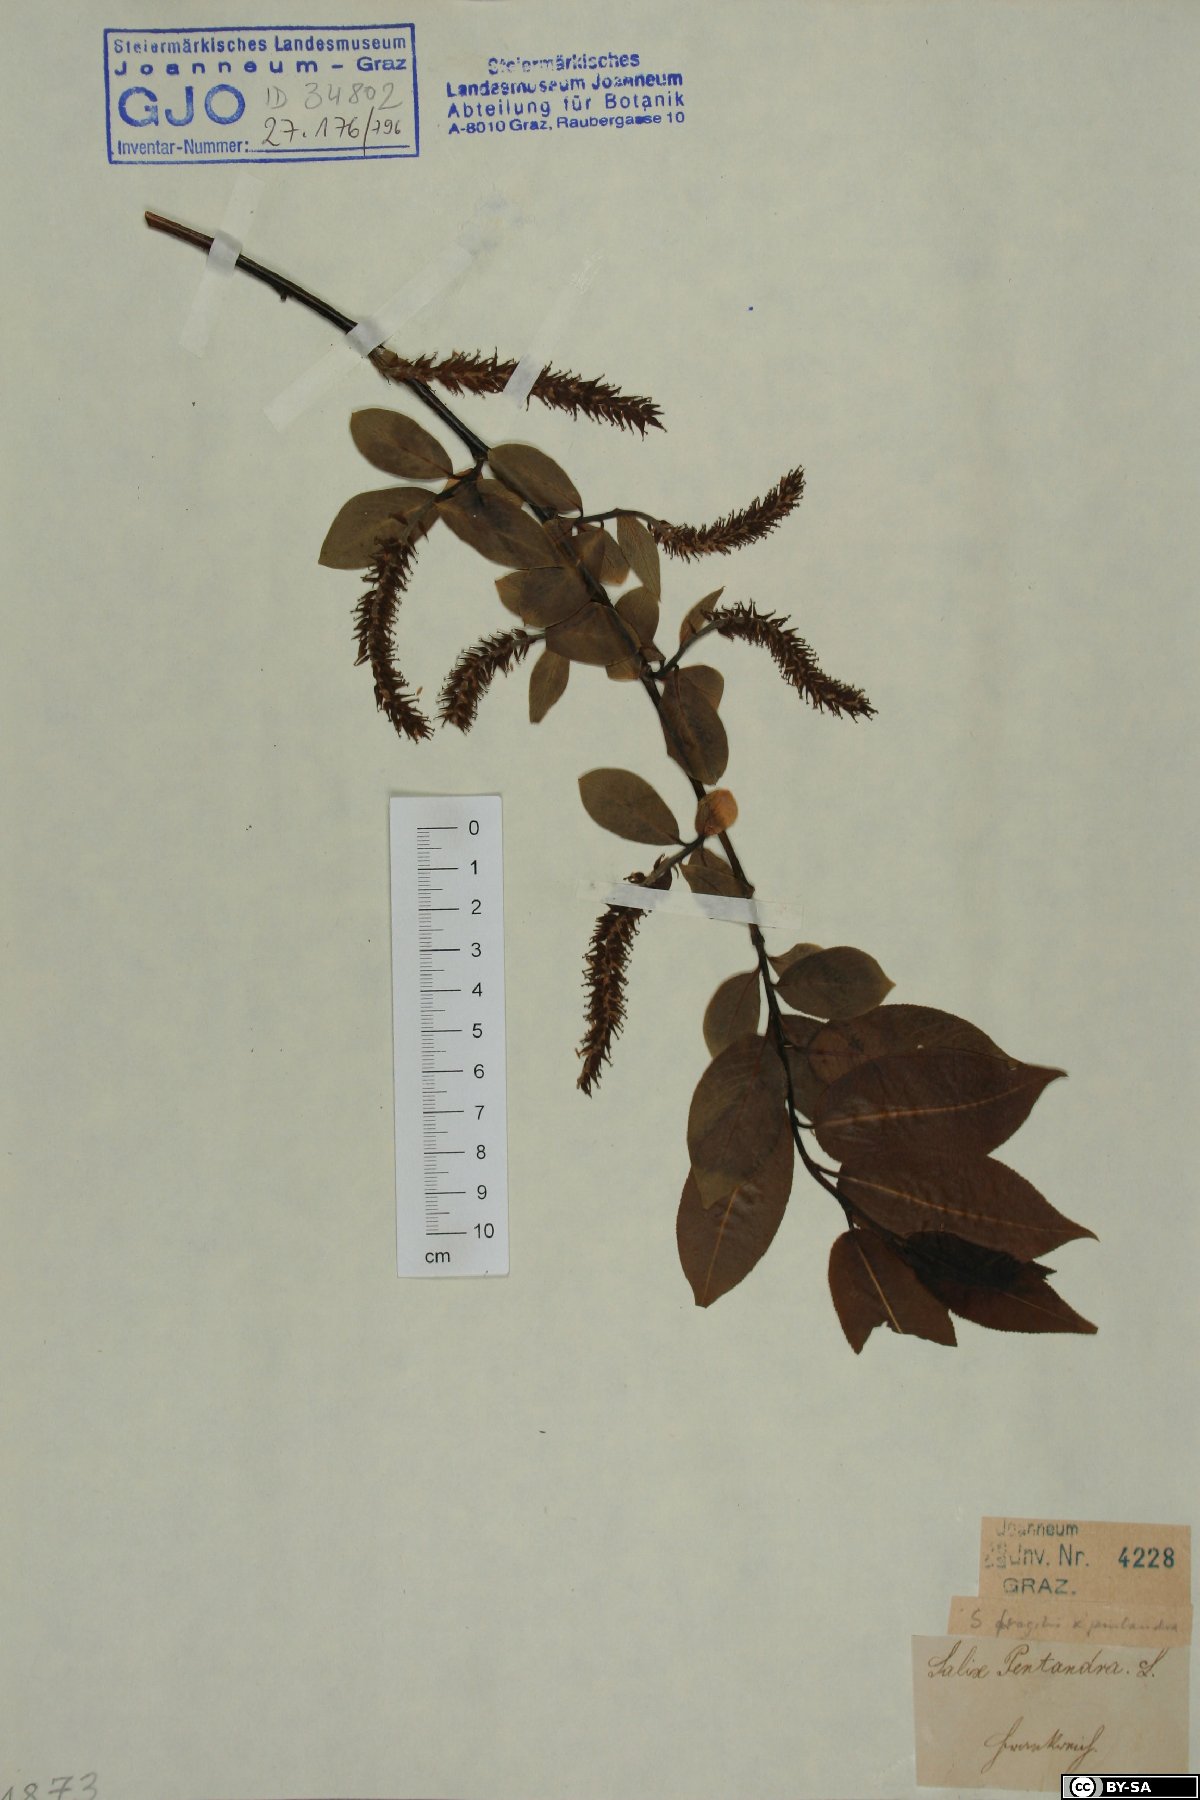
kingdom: Plantae
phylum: Tracheophyta
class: Magnoliopsida
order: Malpighiales
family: Salicaceae
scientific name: Salicaceae
